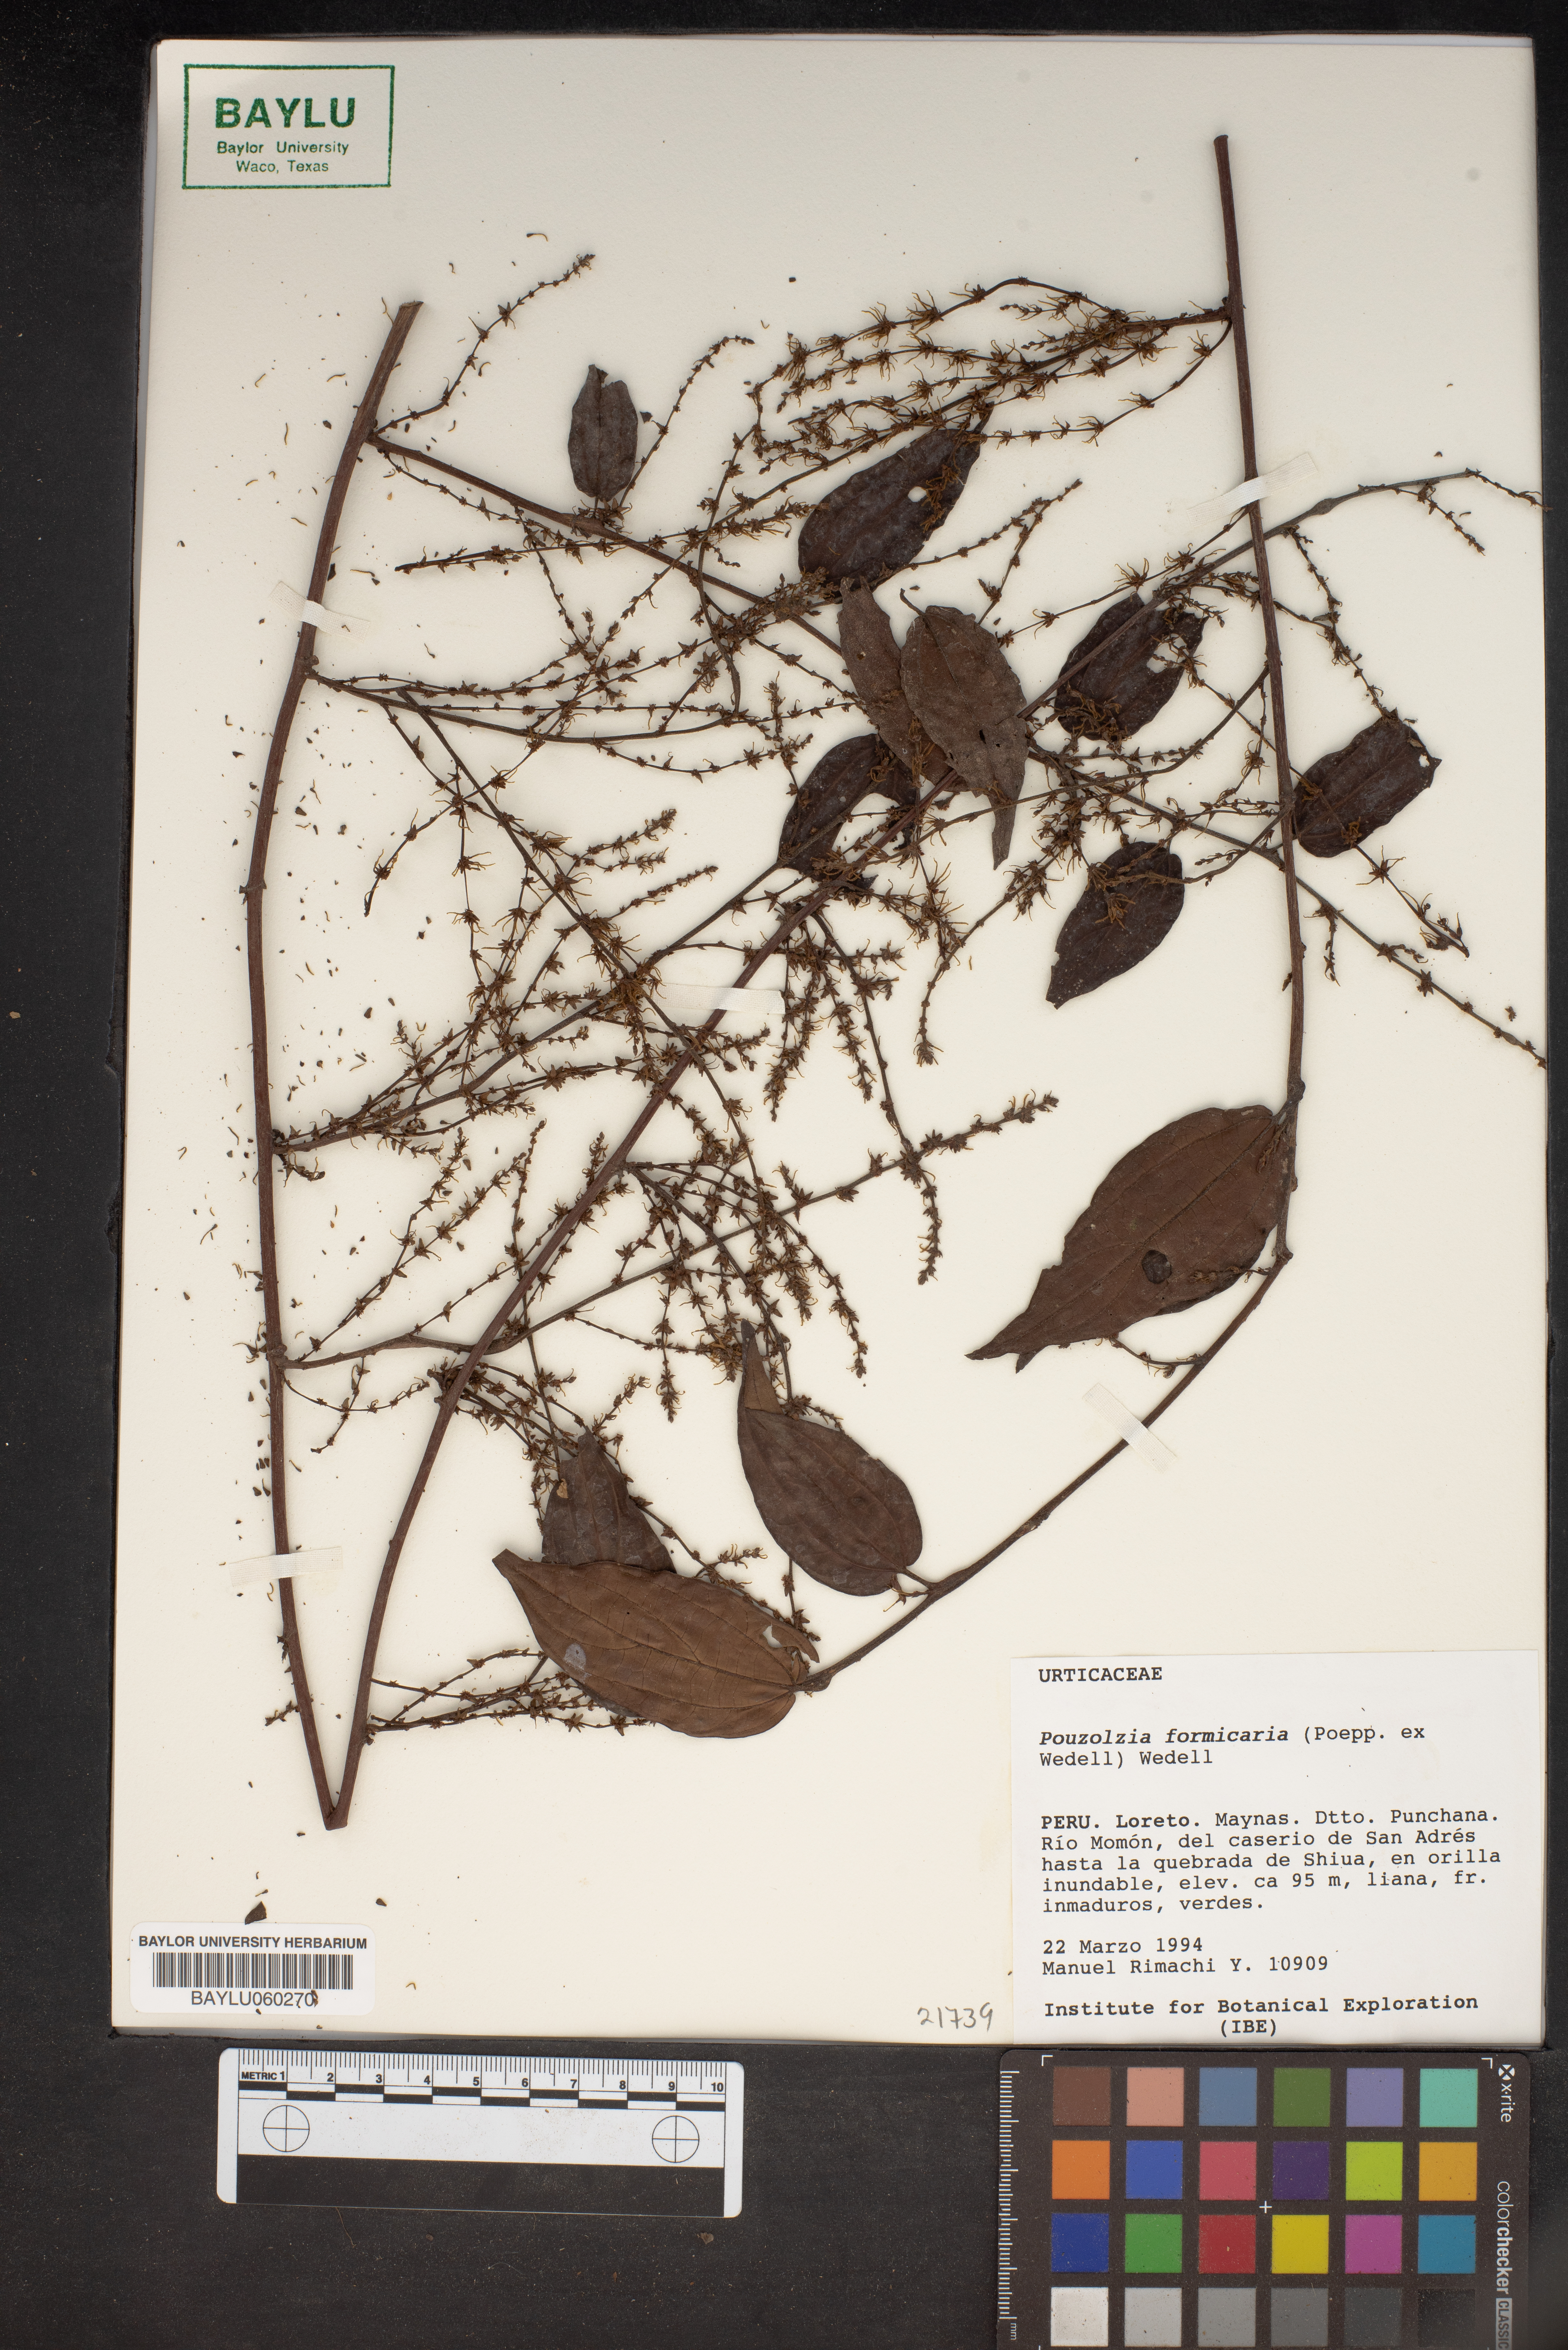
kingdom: Plantae
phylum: Tracheophyta
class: Magnoliopsida
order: Rosales
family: Urticaceae
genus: Pouzolzia
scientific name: Pouzolzia formicaria
